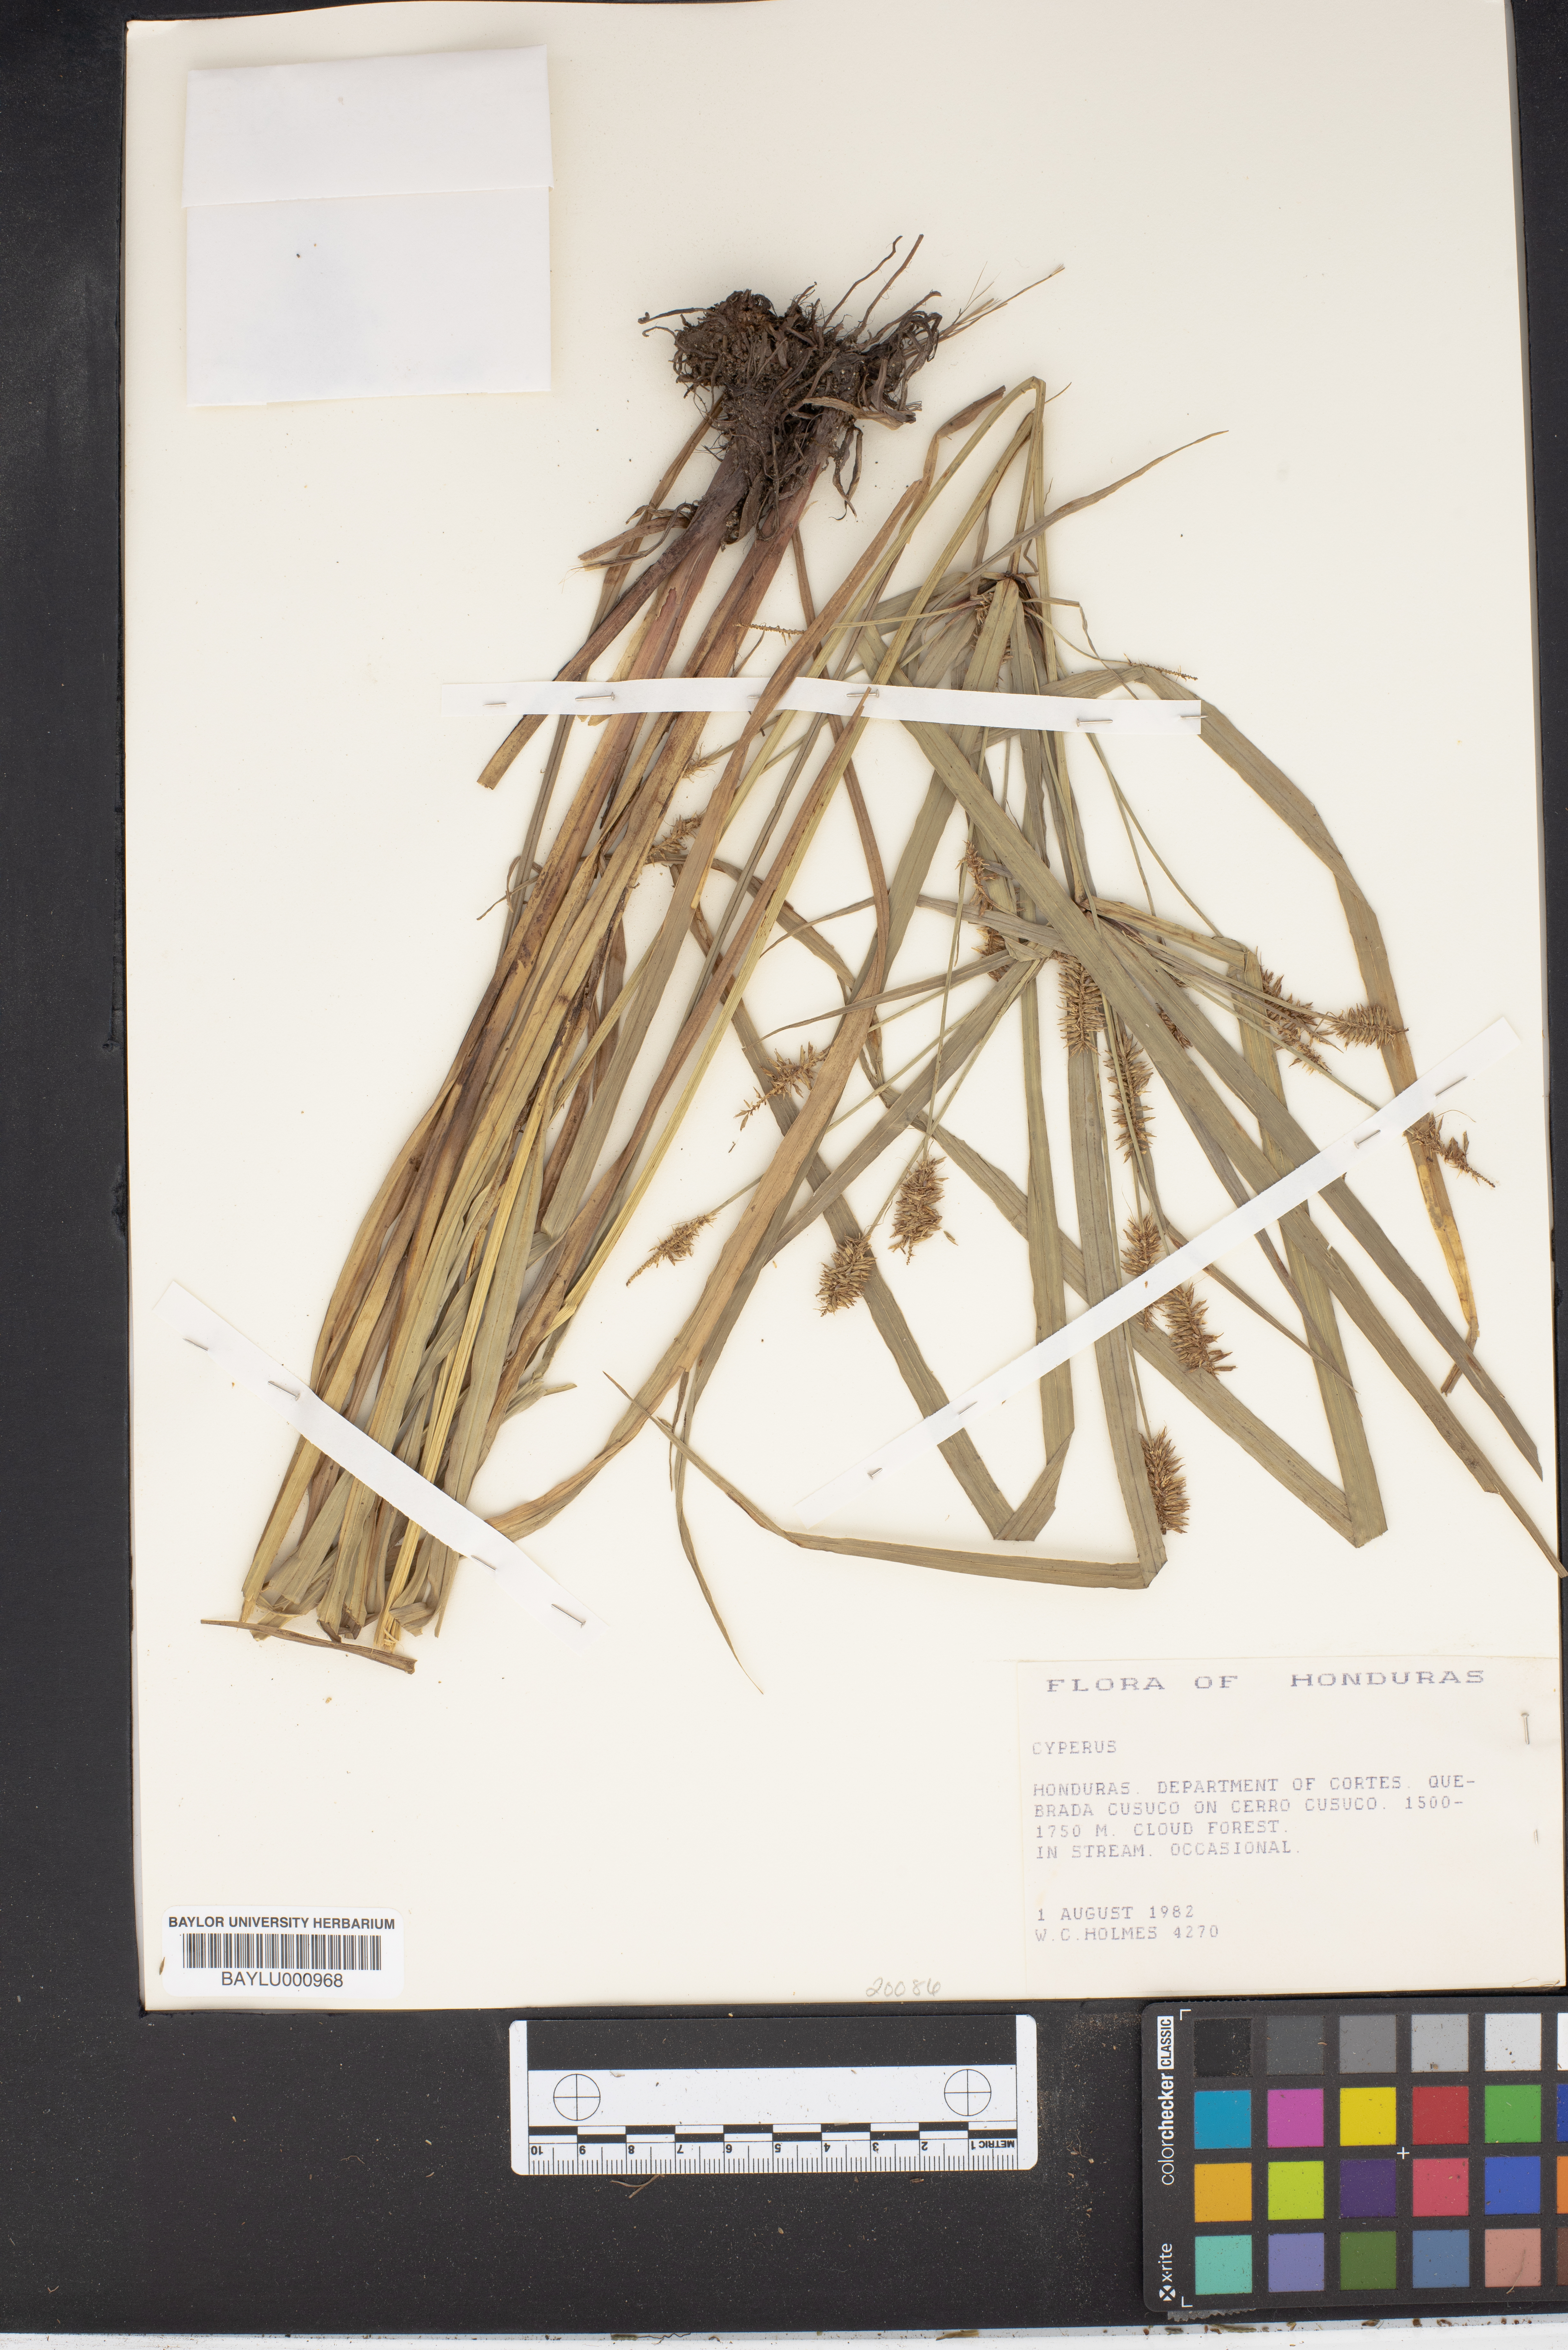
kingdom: Plantae
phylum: Tracheophyta
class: Liliopsida
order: Poales
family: Cyperaceae
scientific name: Cyperaceae
